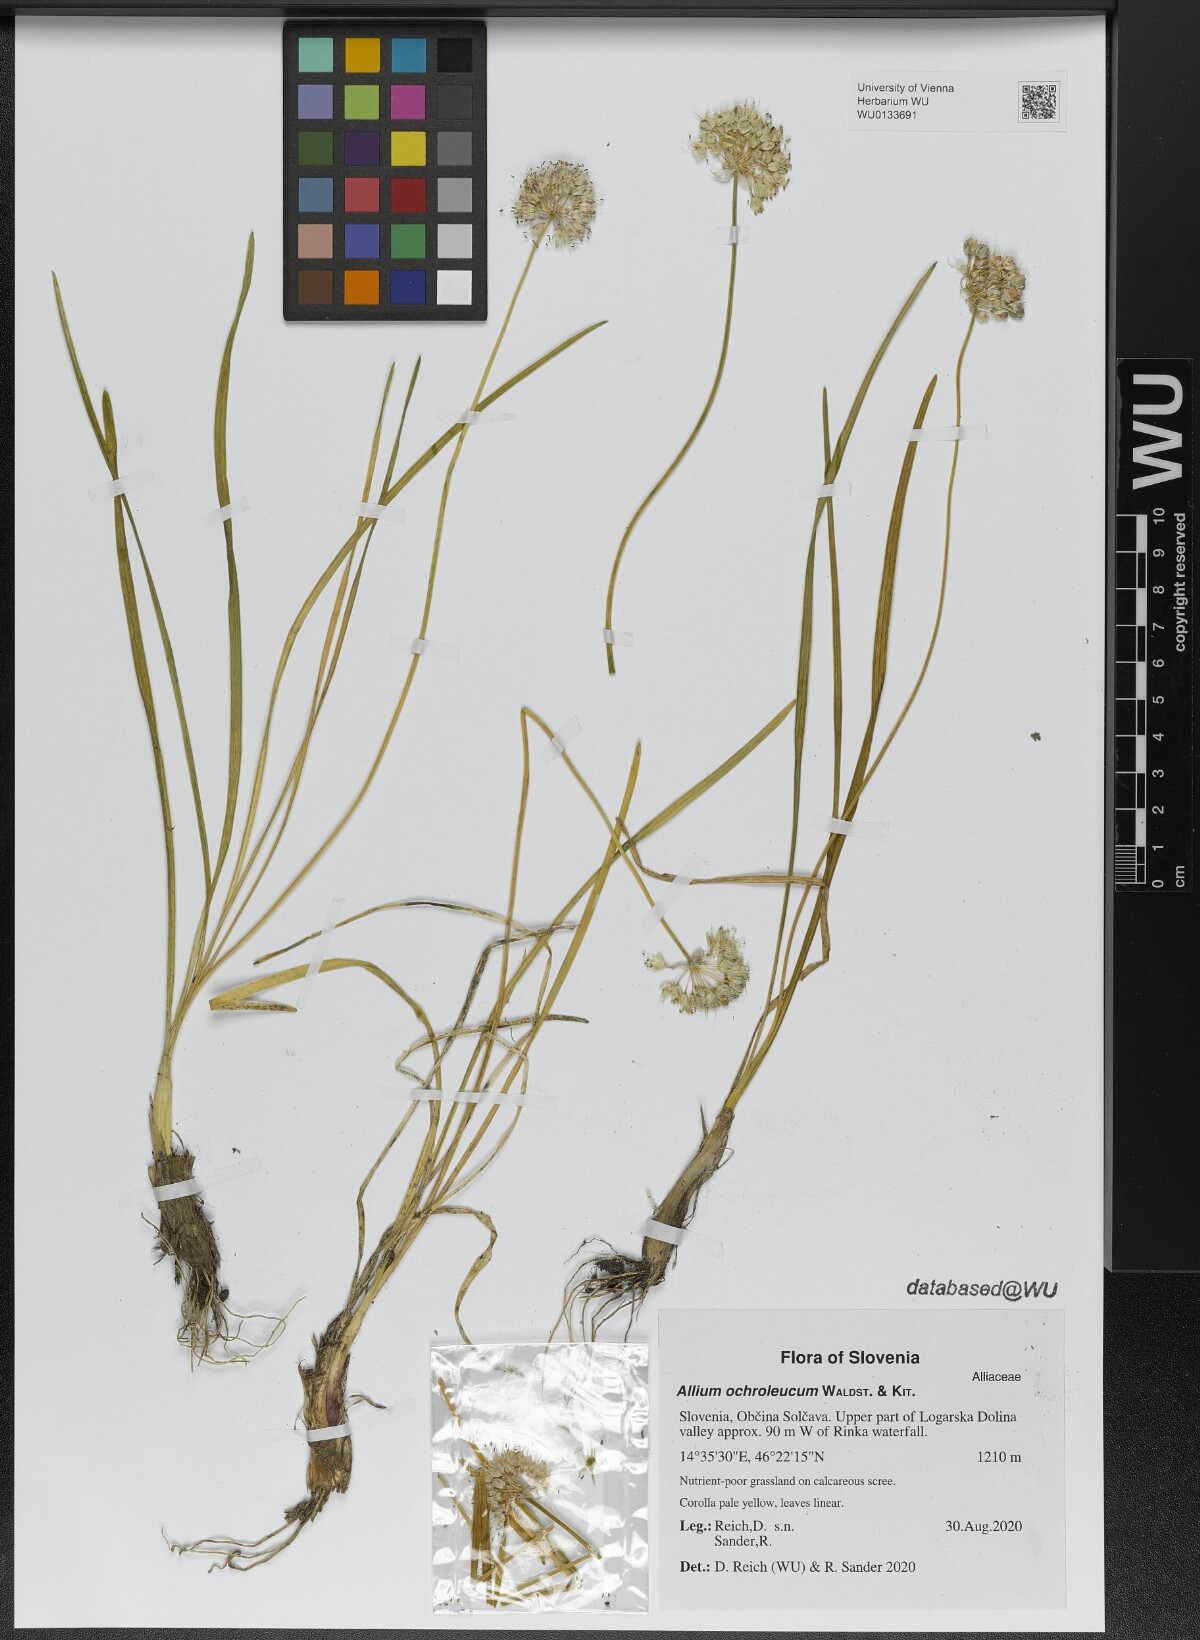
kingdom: Plantae
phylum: Tracheophyta
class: Liliopsida
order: Asparagales
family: Amaryllidaceae
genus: Allium
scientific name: Allium ericetorum
